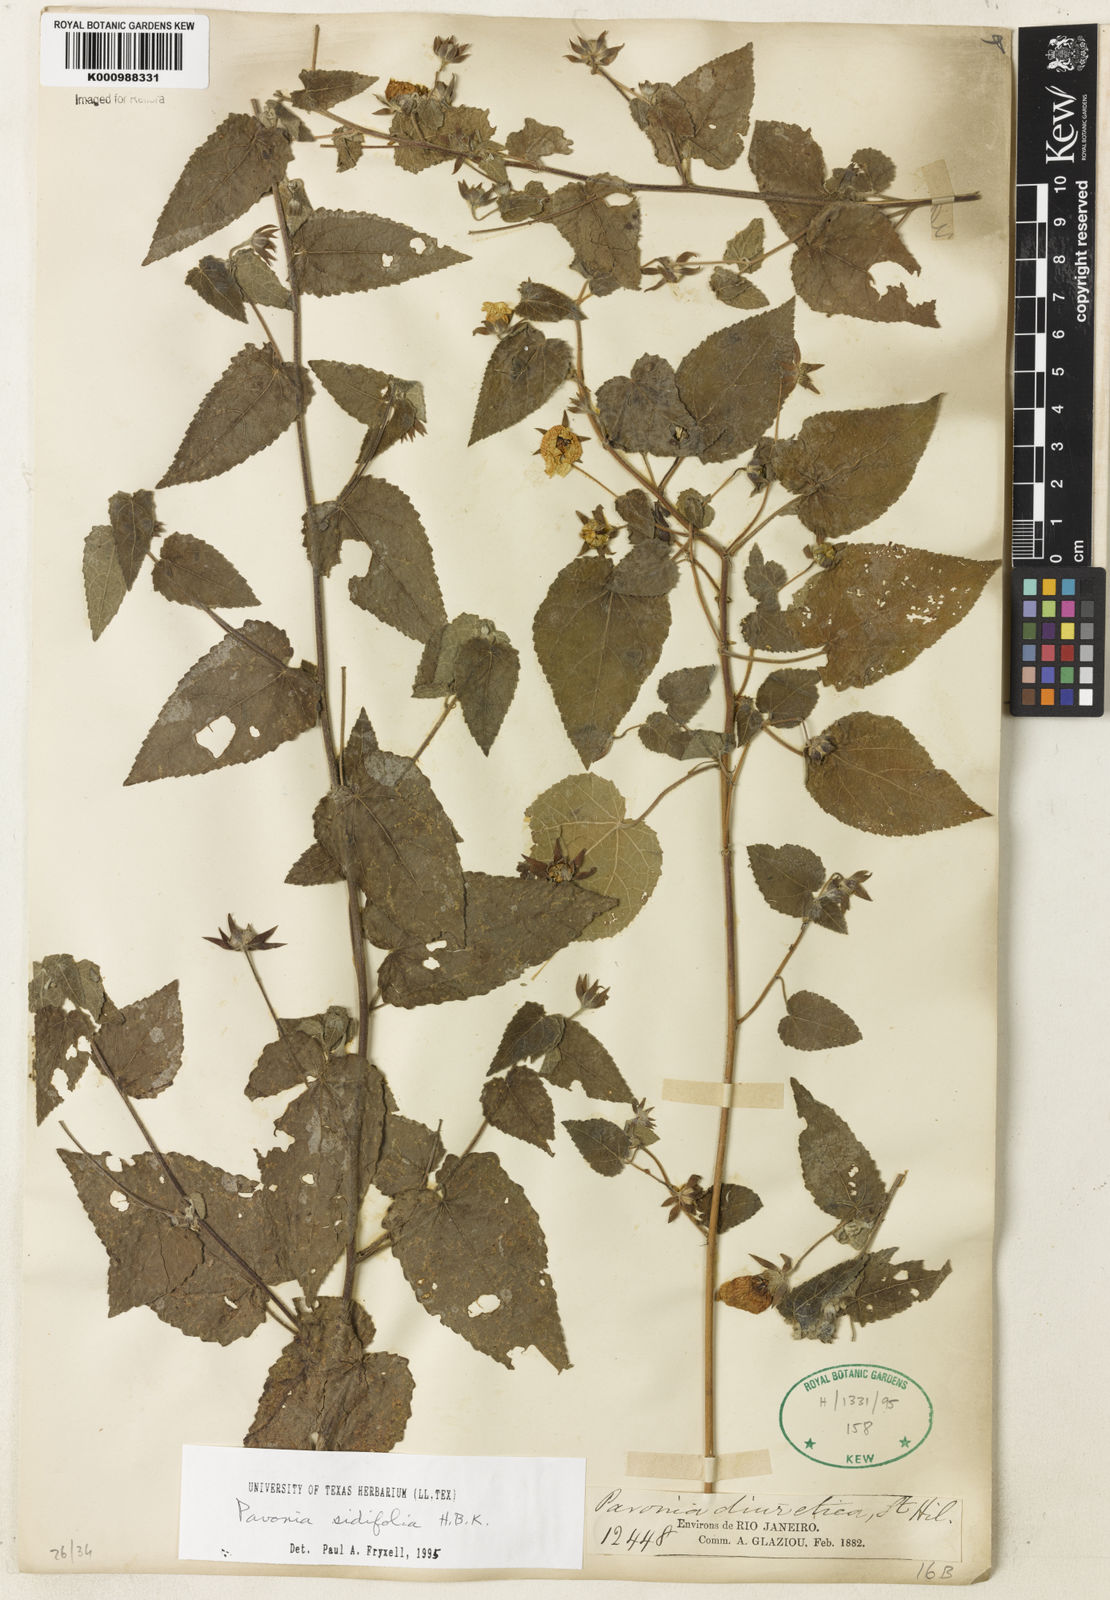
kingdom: Plantae
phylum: Tracheophyta
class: Magnoliopsida
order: Malvales
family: Malvaceae
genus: Pavonia
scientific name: Pavonia sidifolia
